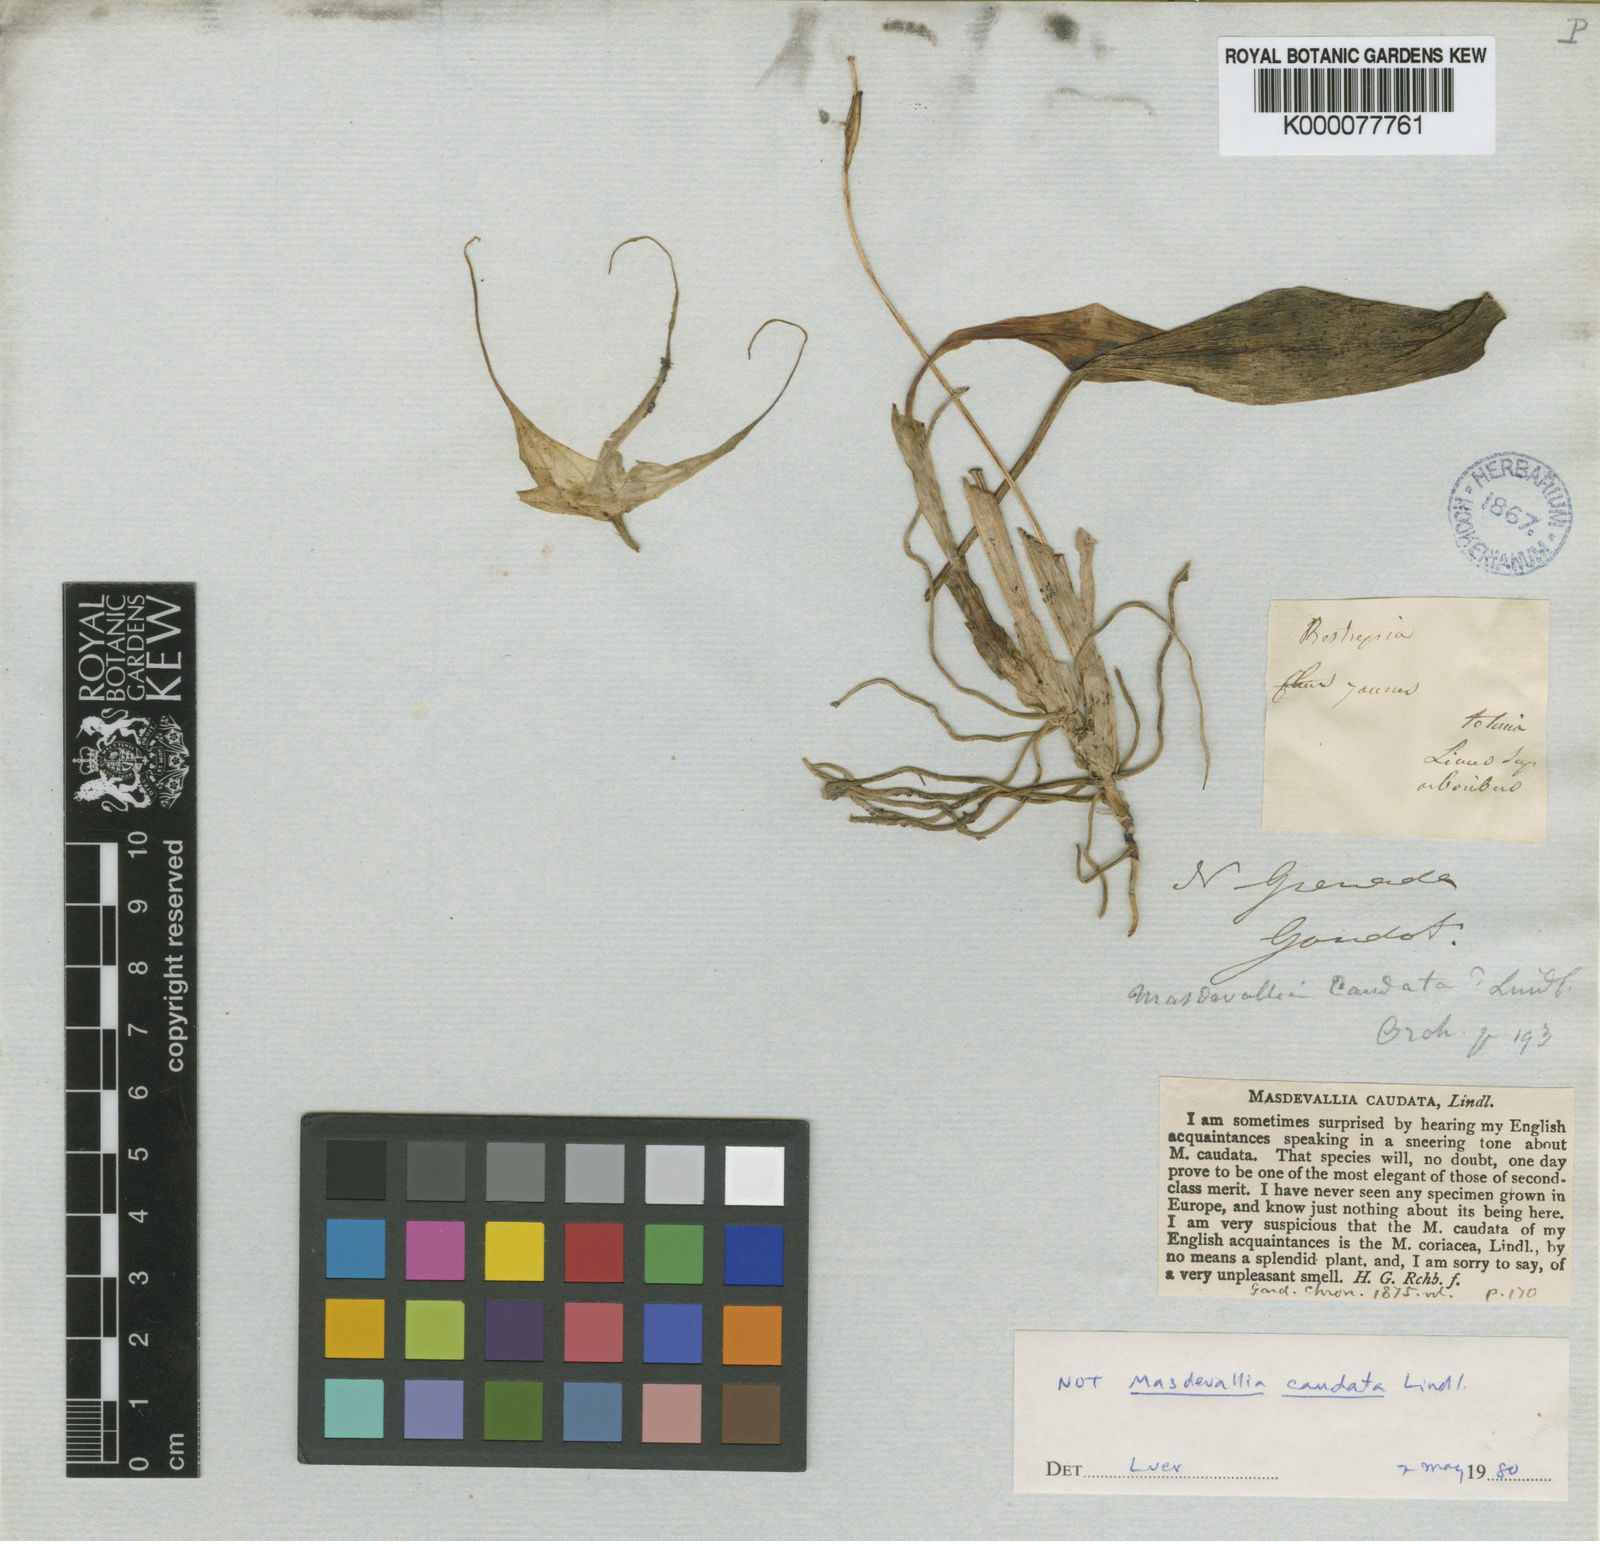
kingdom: Plantae
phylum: Tracheophyta
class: Liliopsida
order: Asparagales
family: Orchidaceae
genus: Masdevallia
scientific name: Masdevallia caudata
